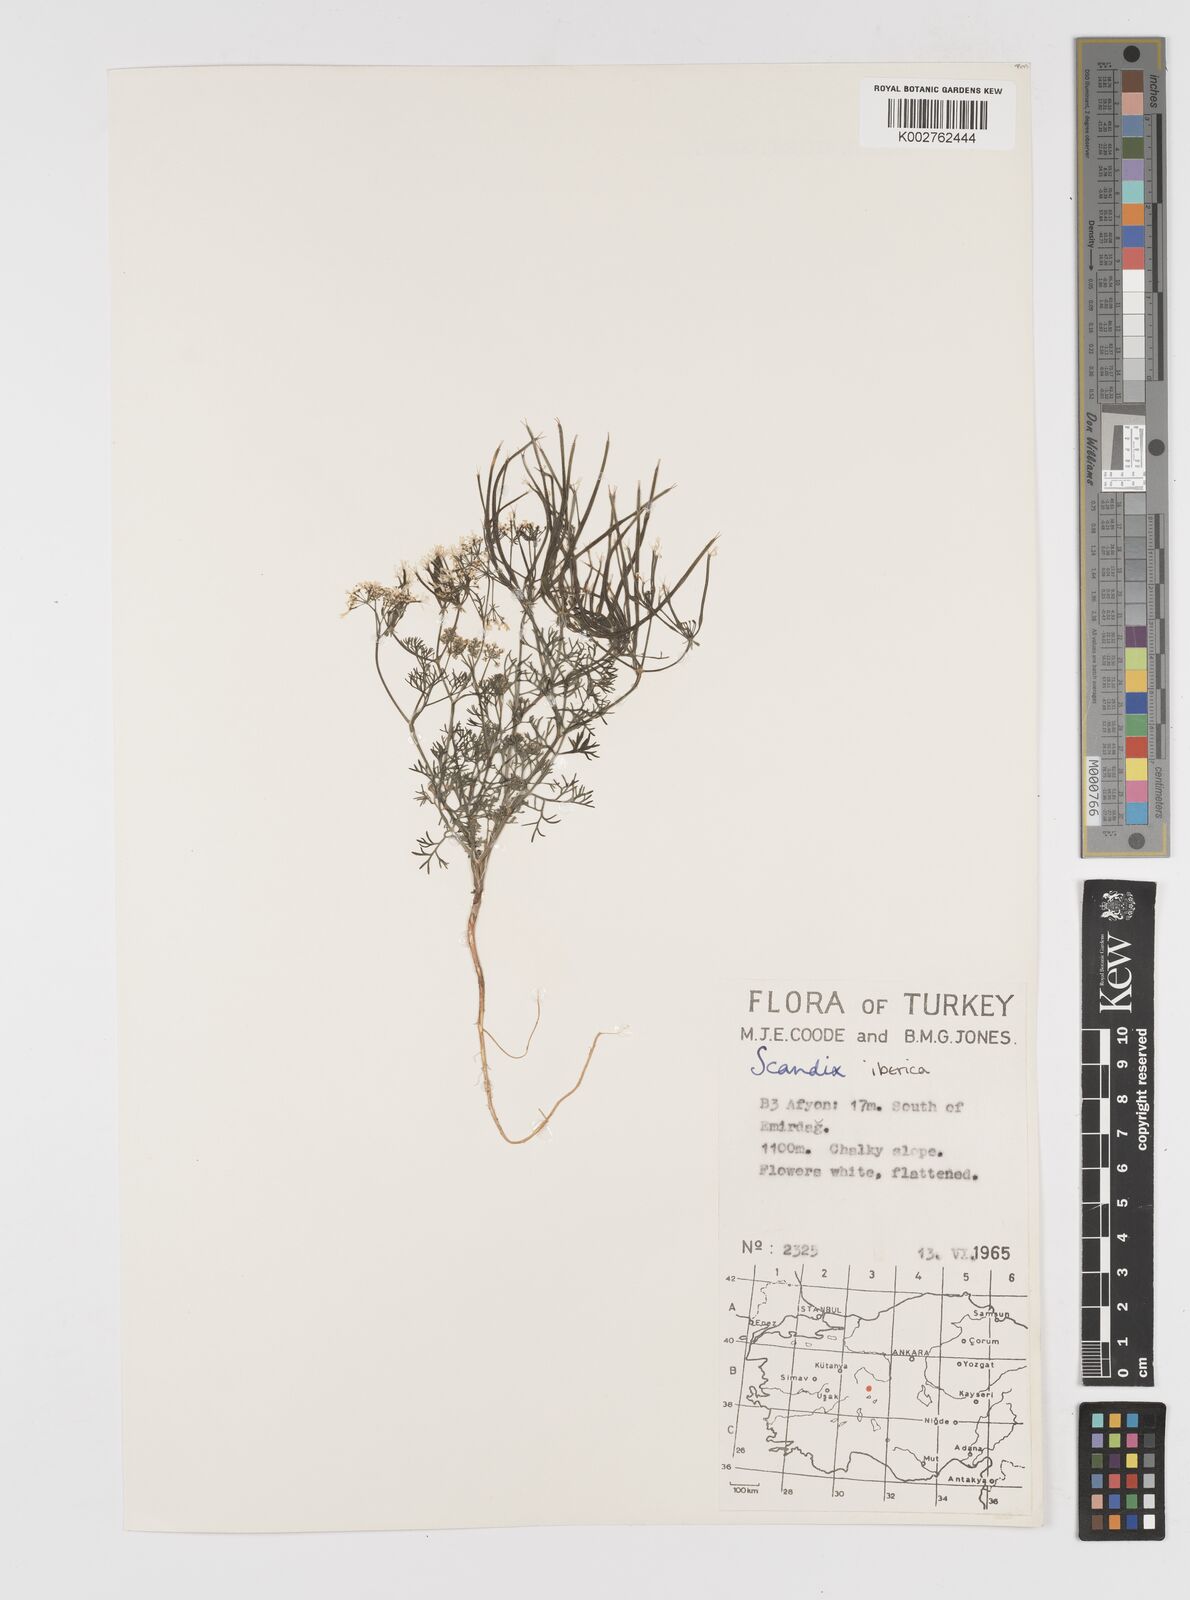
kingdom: Plantae
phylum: Tracheophyta
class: Magnoliopsida
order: Apiales
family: Apiaceae
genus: Scandix
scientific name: Scandix iberica
